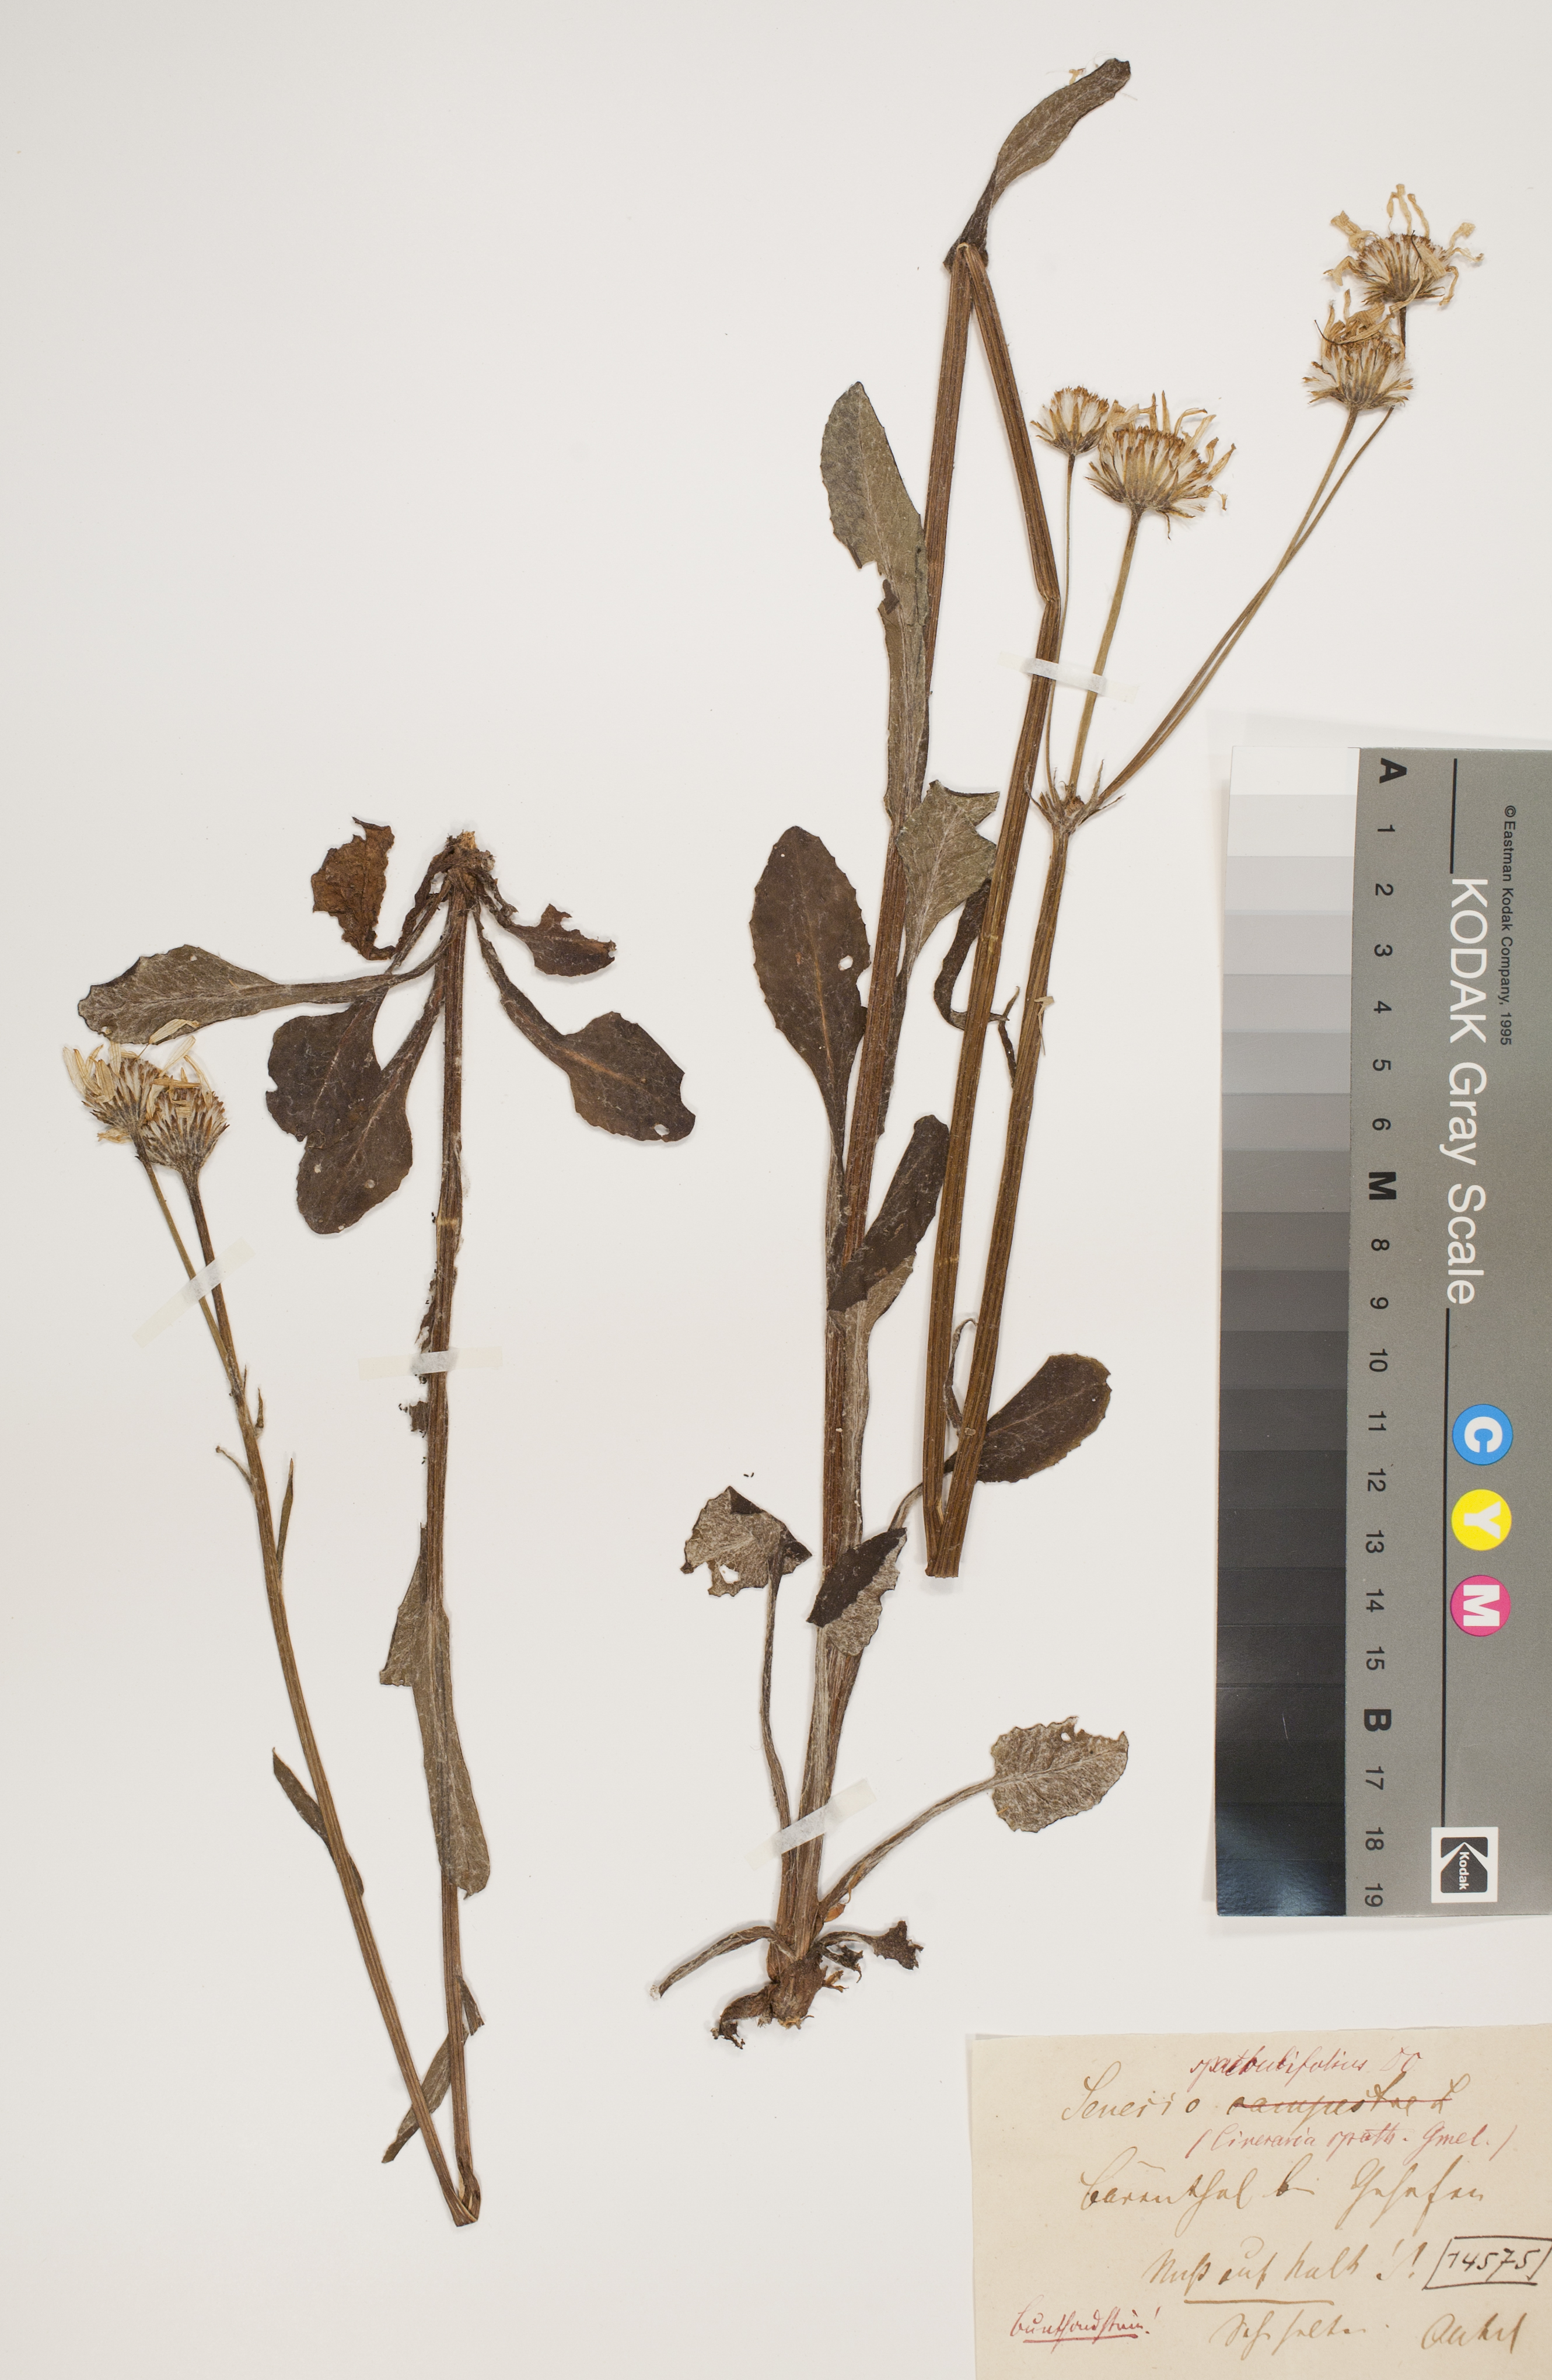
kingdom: Plantae
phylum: Tracheophyta
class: Magnoliopsida
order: Asterales
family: Asteraceae
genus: Senecio
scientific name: Senecio spathulaefolius
